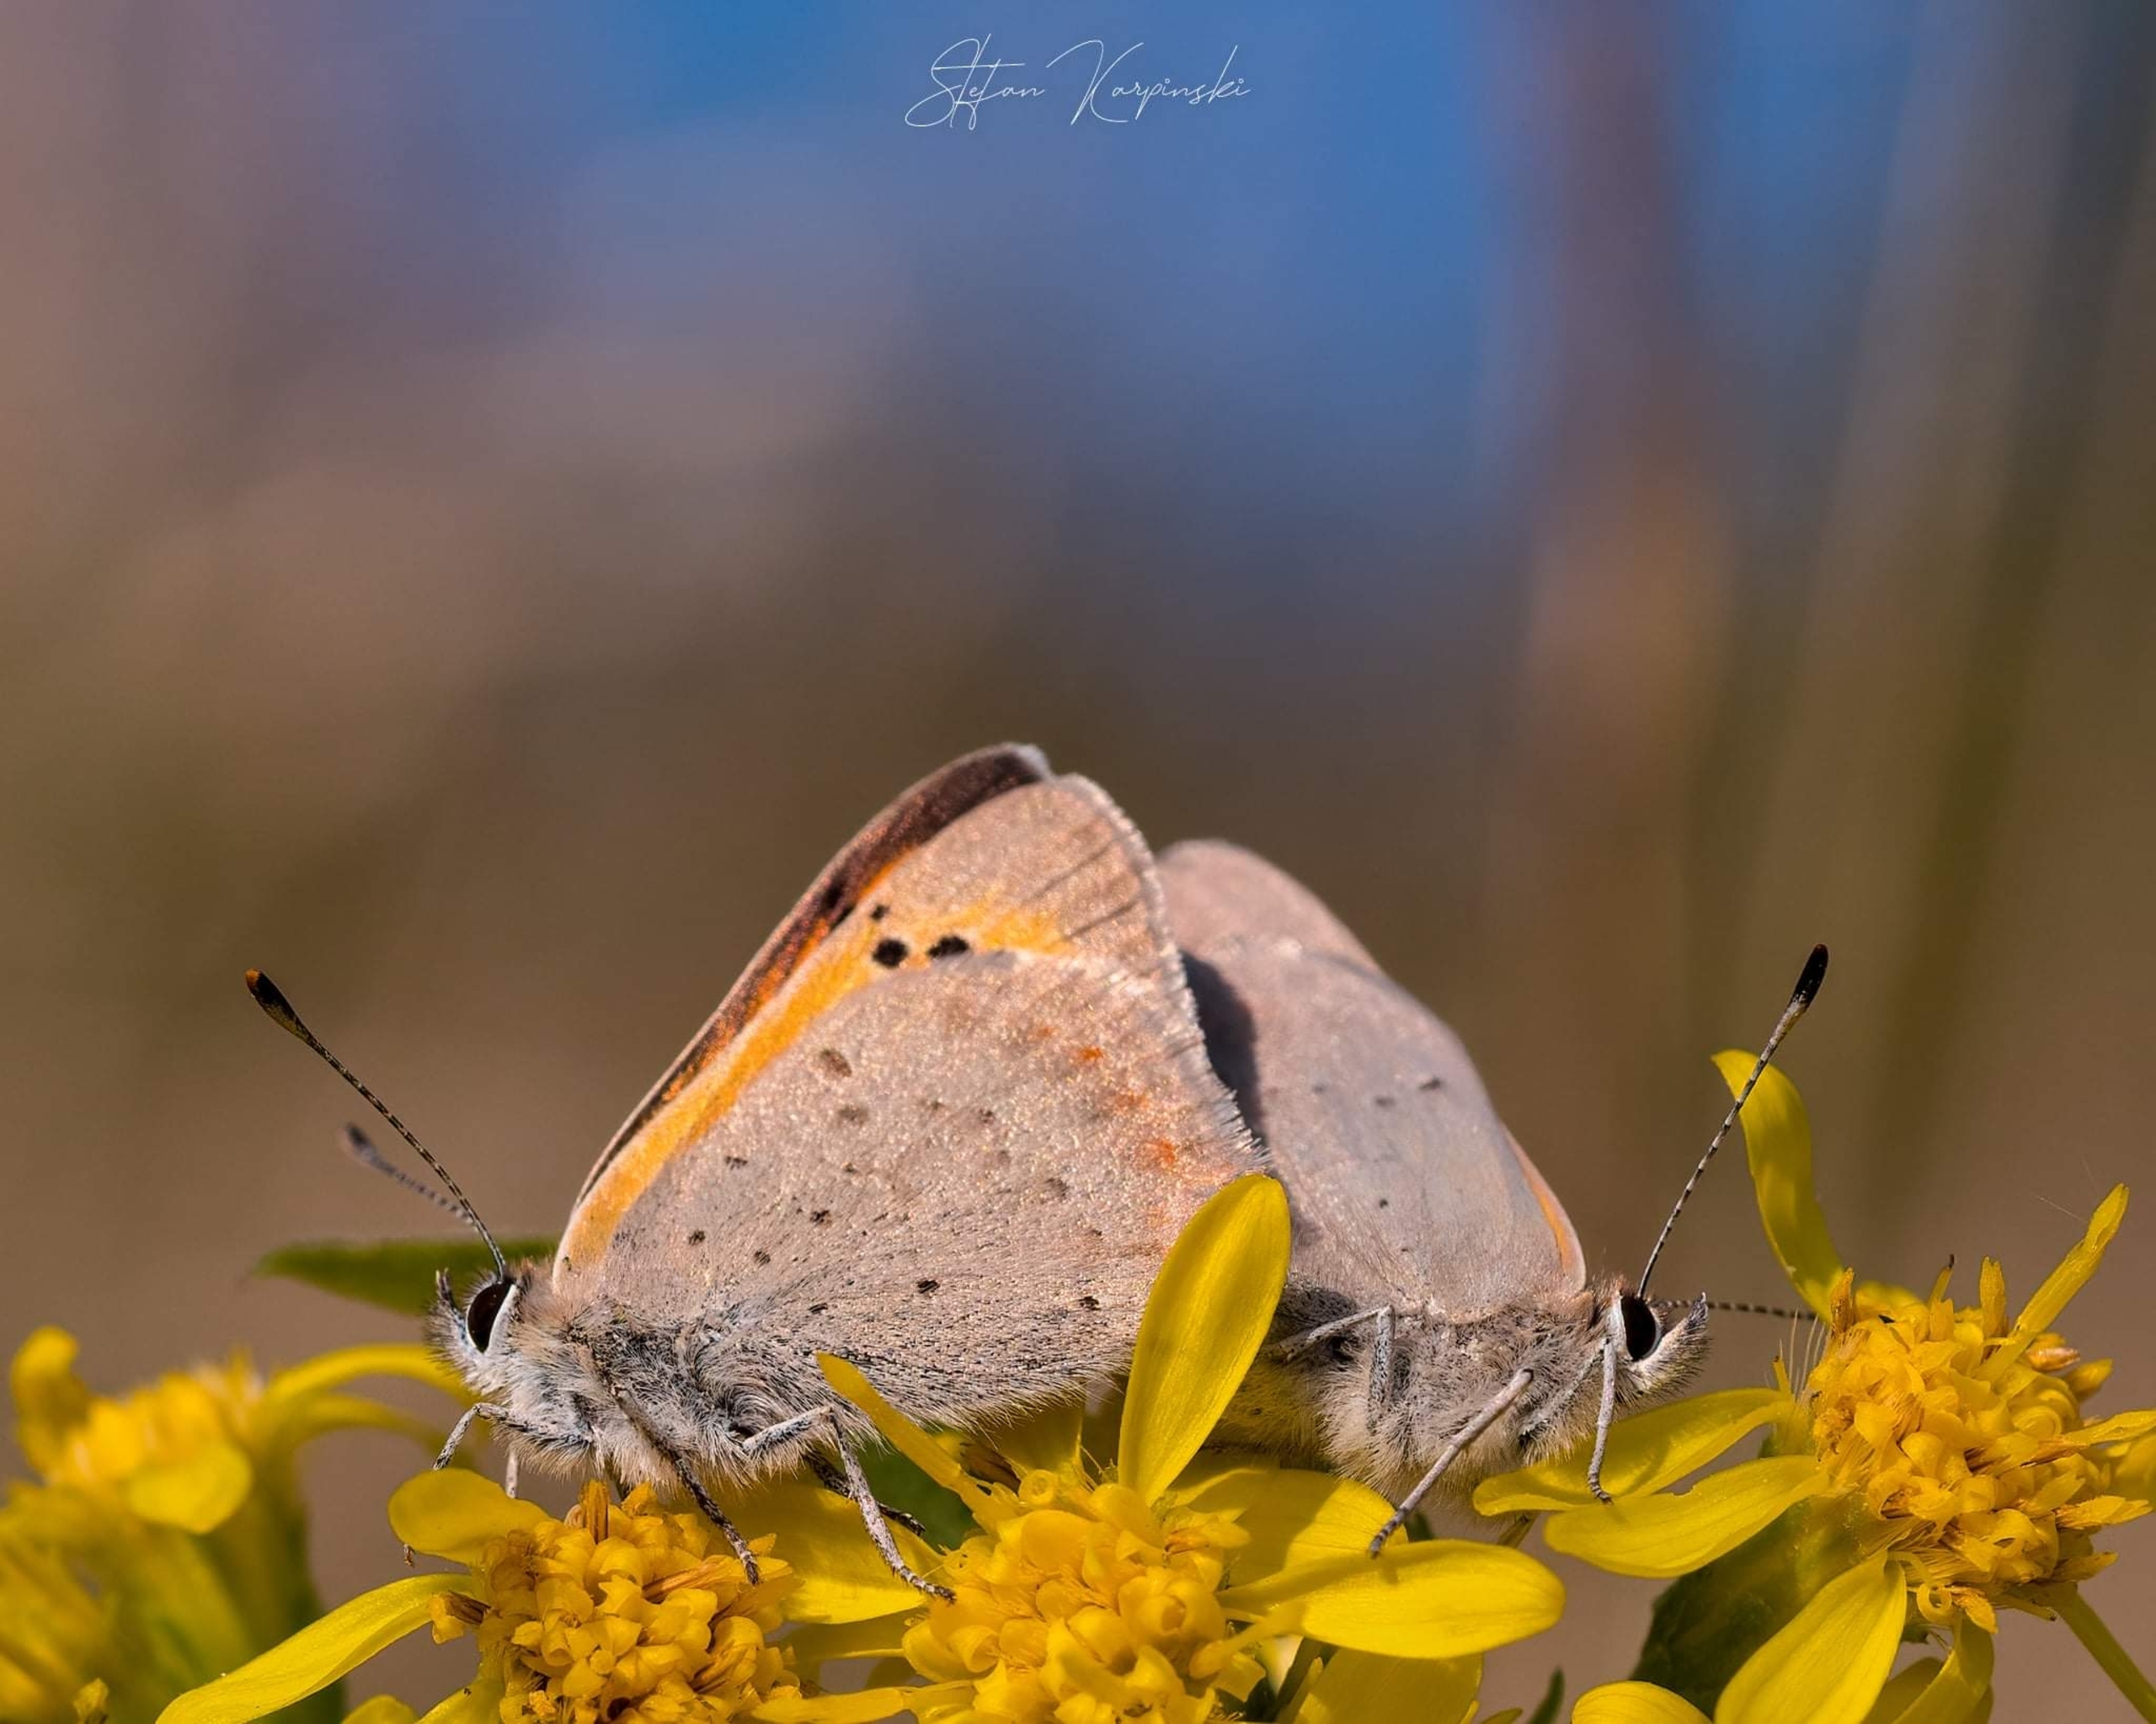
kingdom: Animalia
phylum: Arthropoda
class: Insecta
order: Lepidoptera
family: Lycaenidae
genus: Lycaena
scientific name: Lycaena phlaeas
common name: Lille ildfugl
